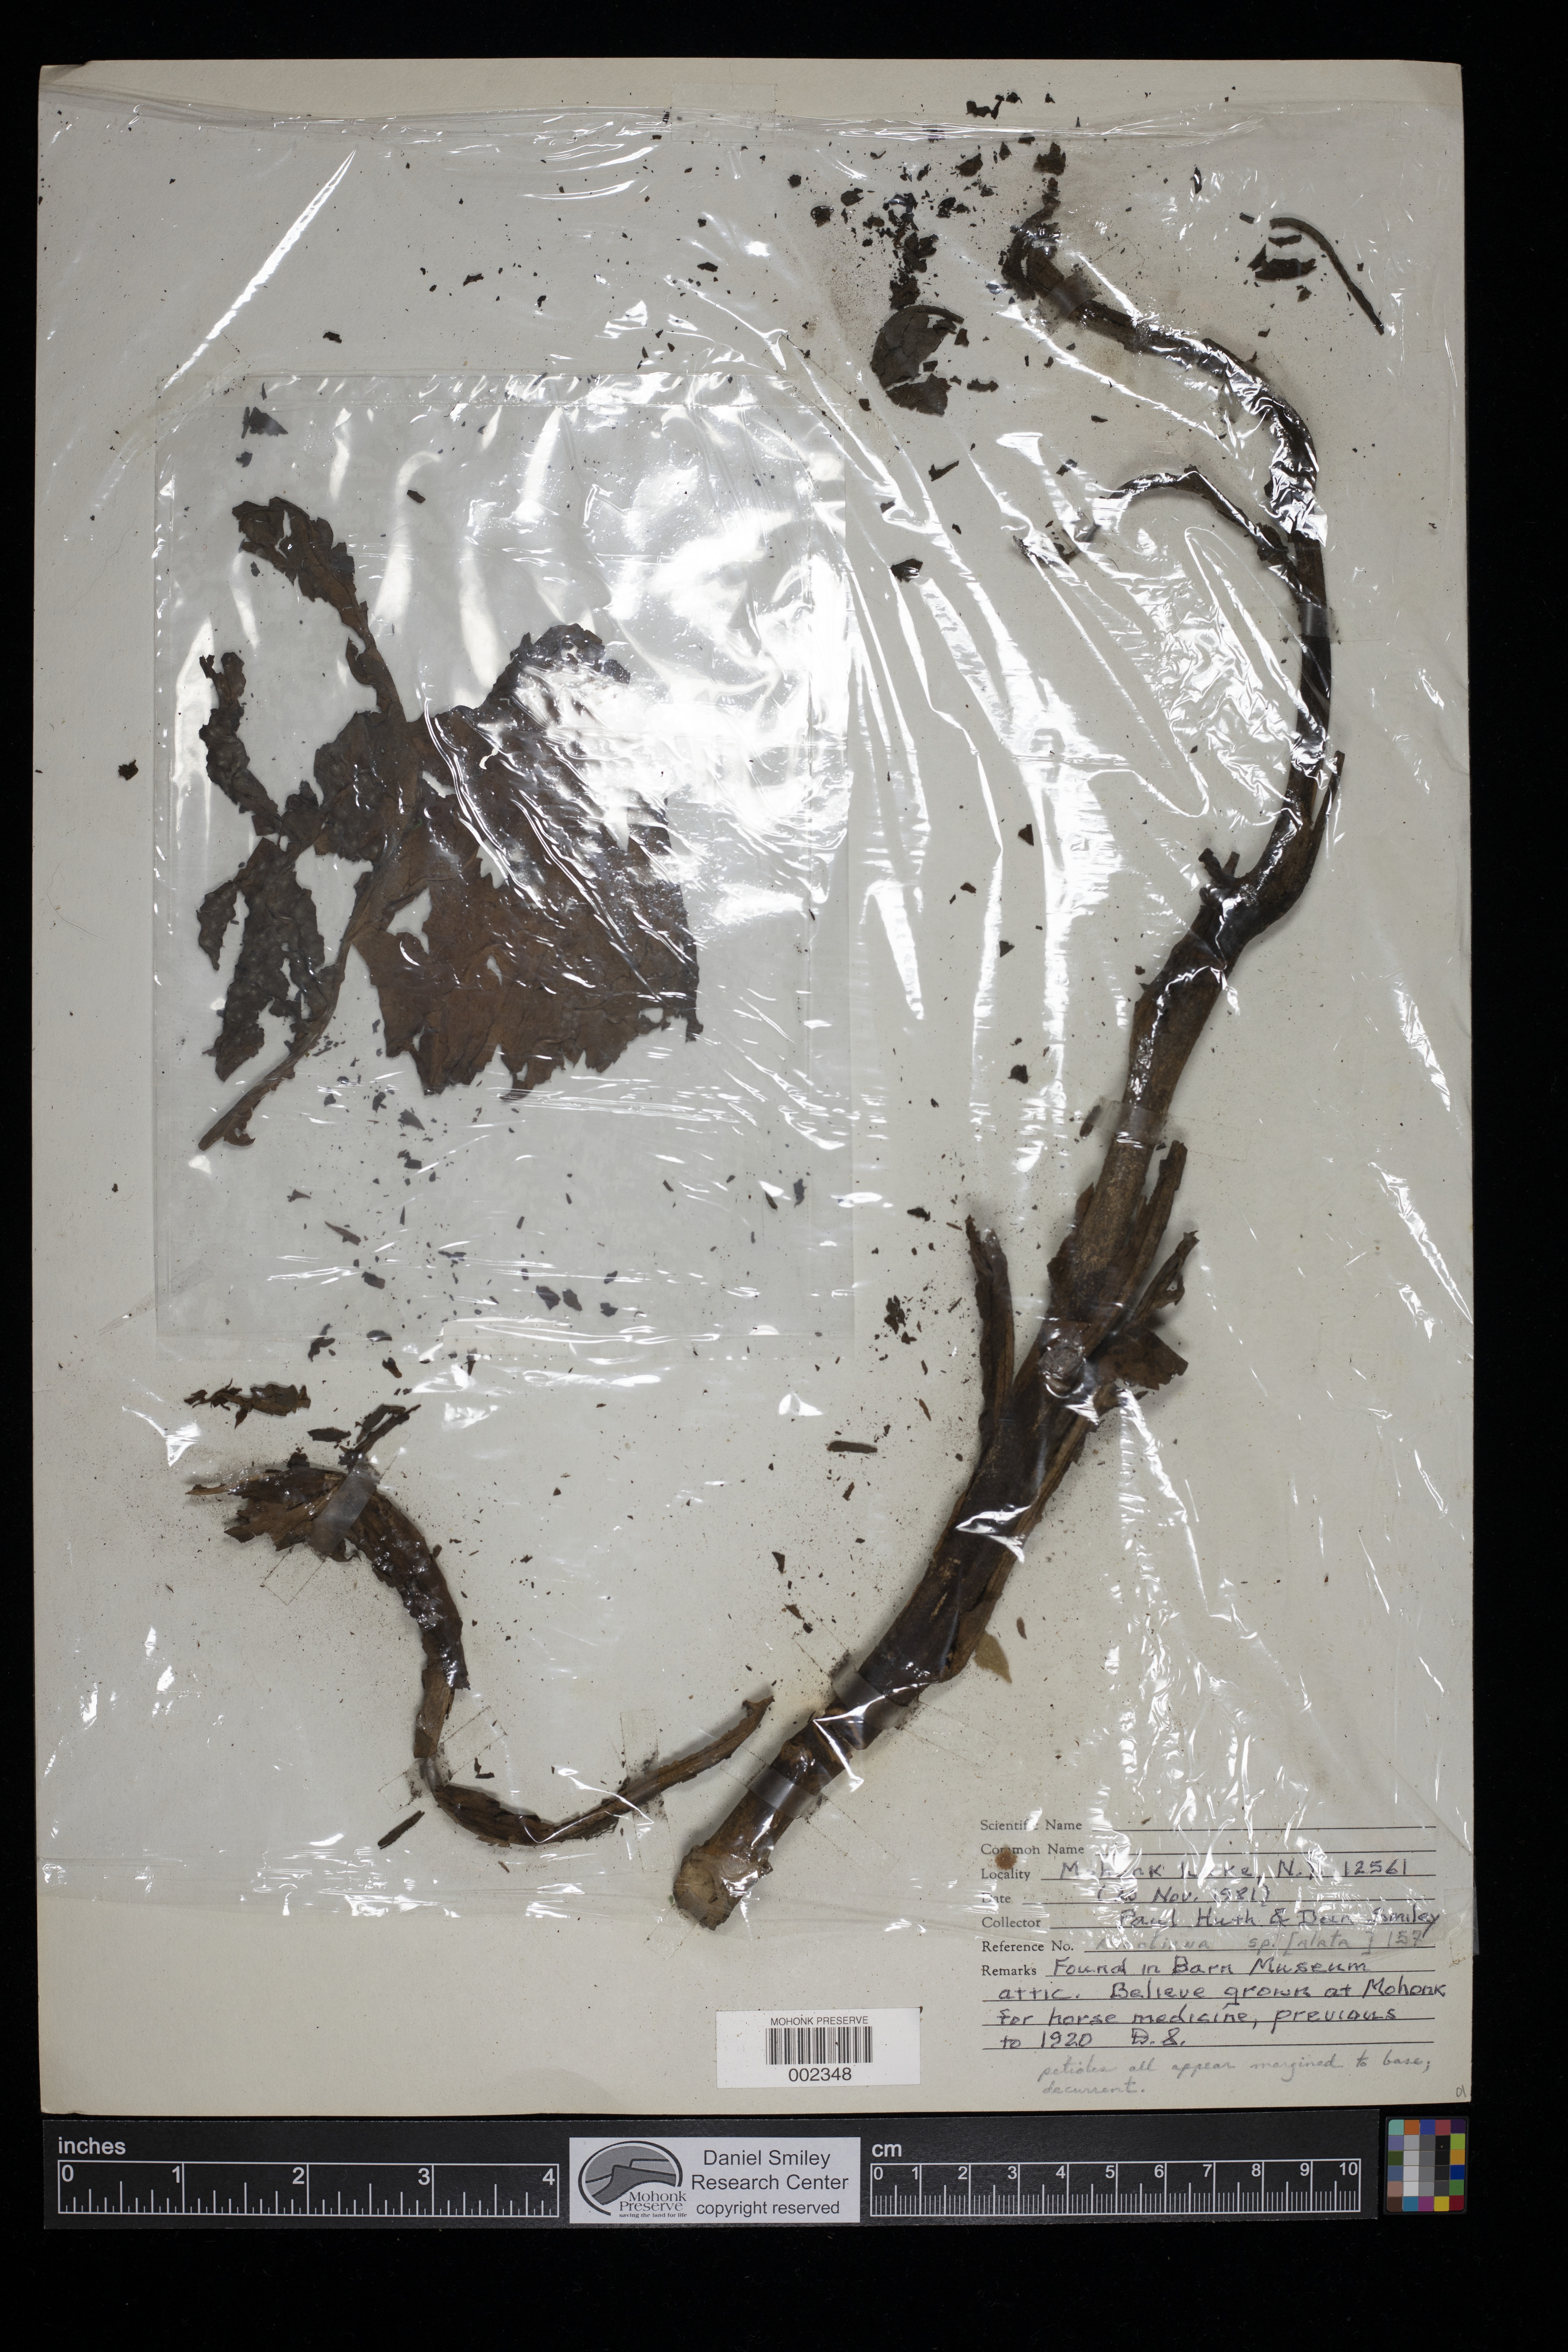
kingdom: Plantae
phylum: Tracheophyta
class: Magnoliopsida
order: Solanales
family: Solanaceae
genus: Nicotiana
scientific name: Nicotiana alata
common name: Jasmine tobacco
